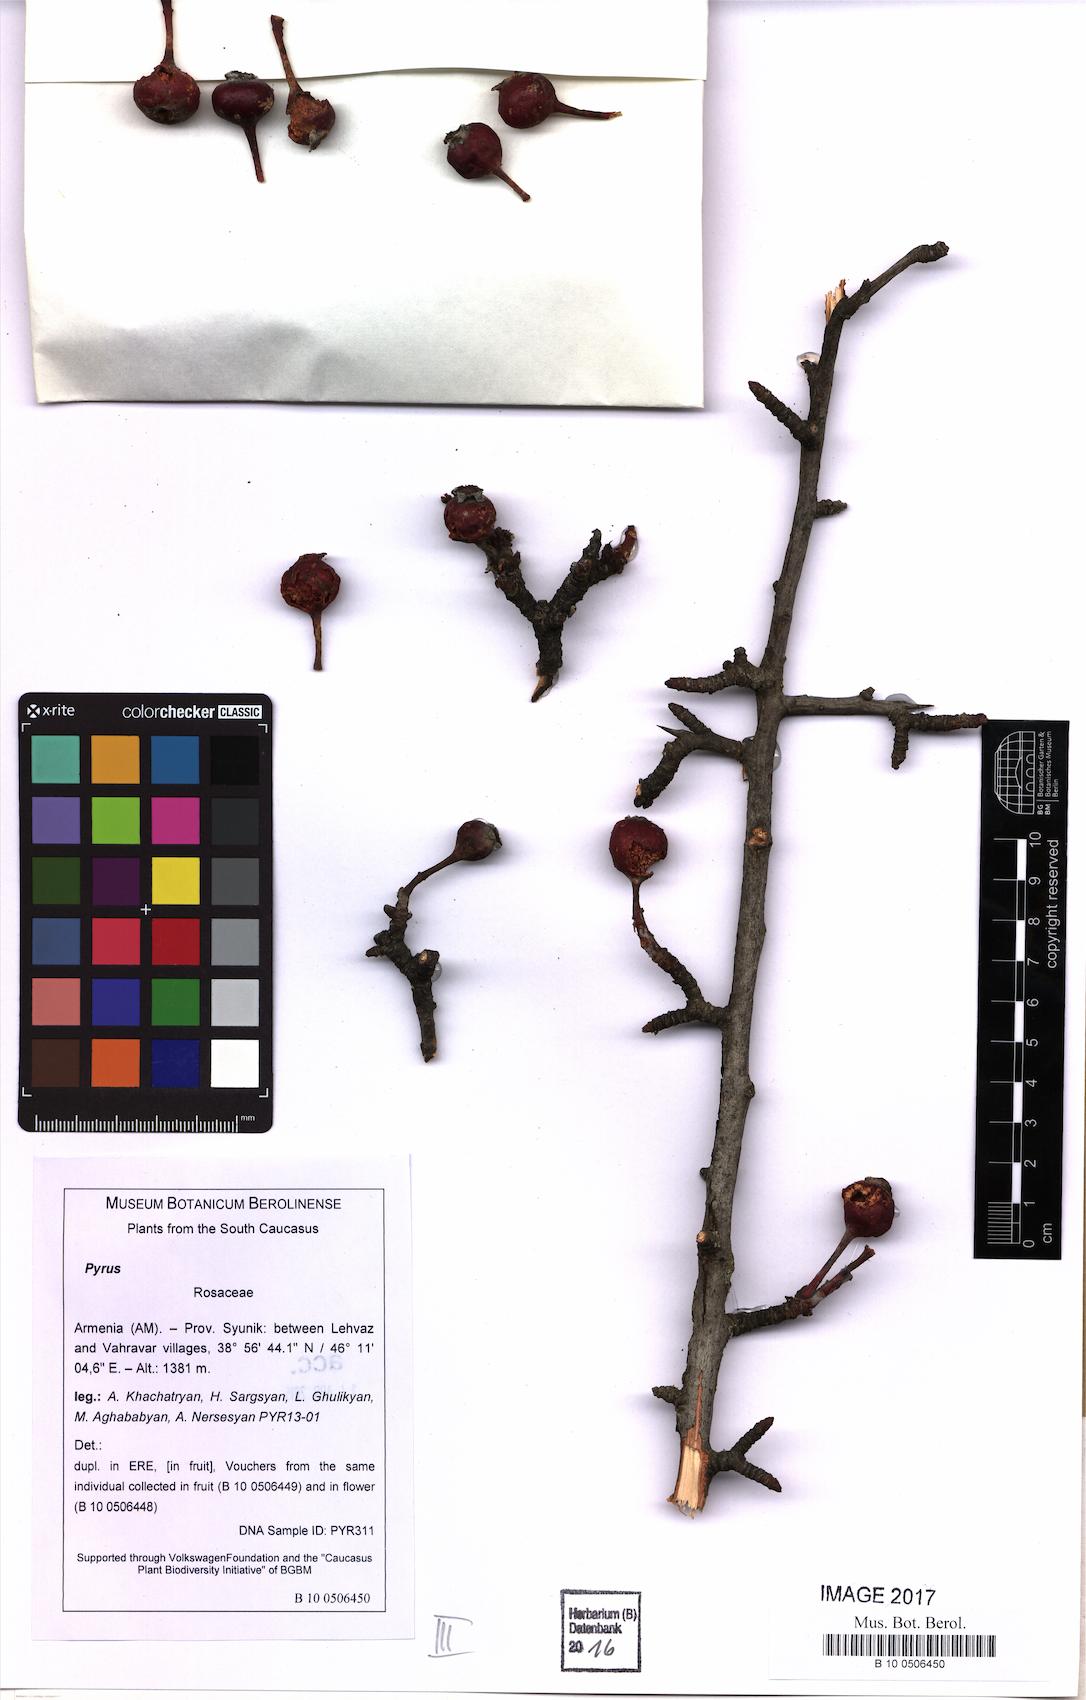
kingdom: Plantae
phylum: Tracheophyta
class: Magnoliopsida
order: Rosales
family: Rosaceae
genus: Pyrus
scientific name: Pyrus
